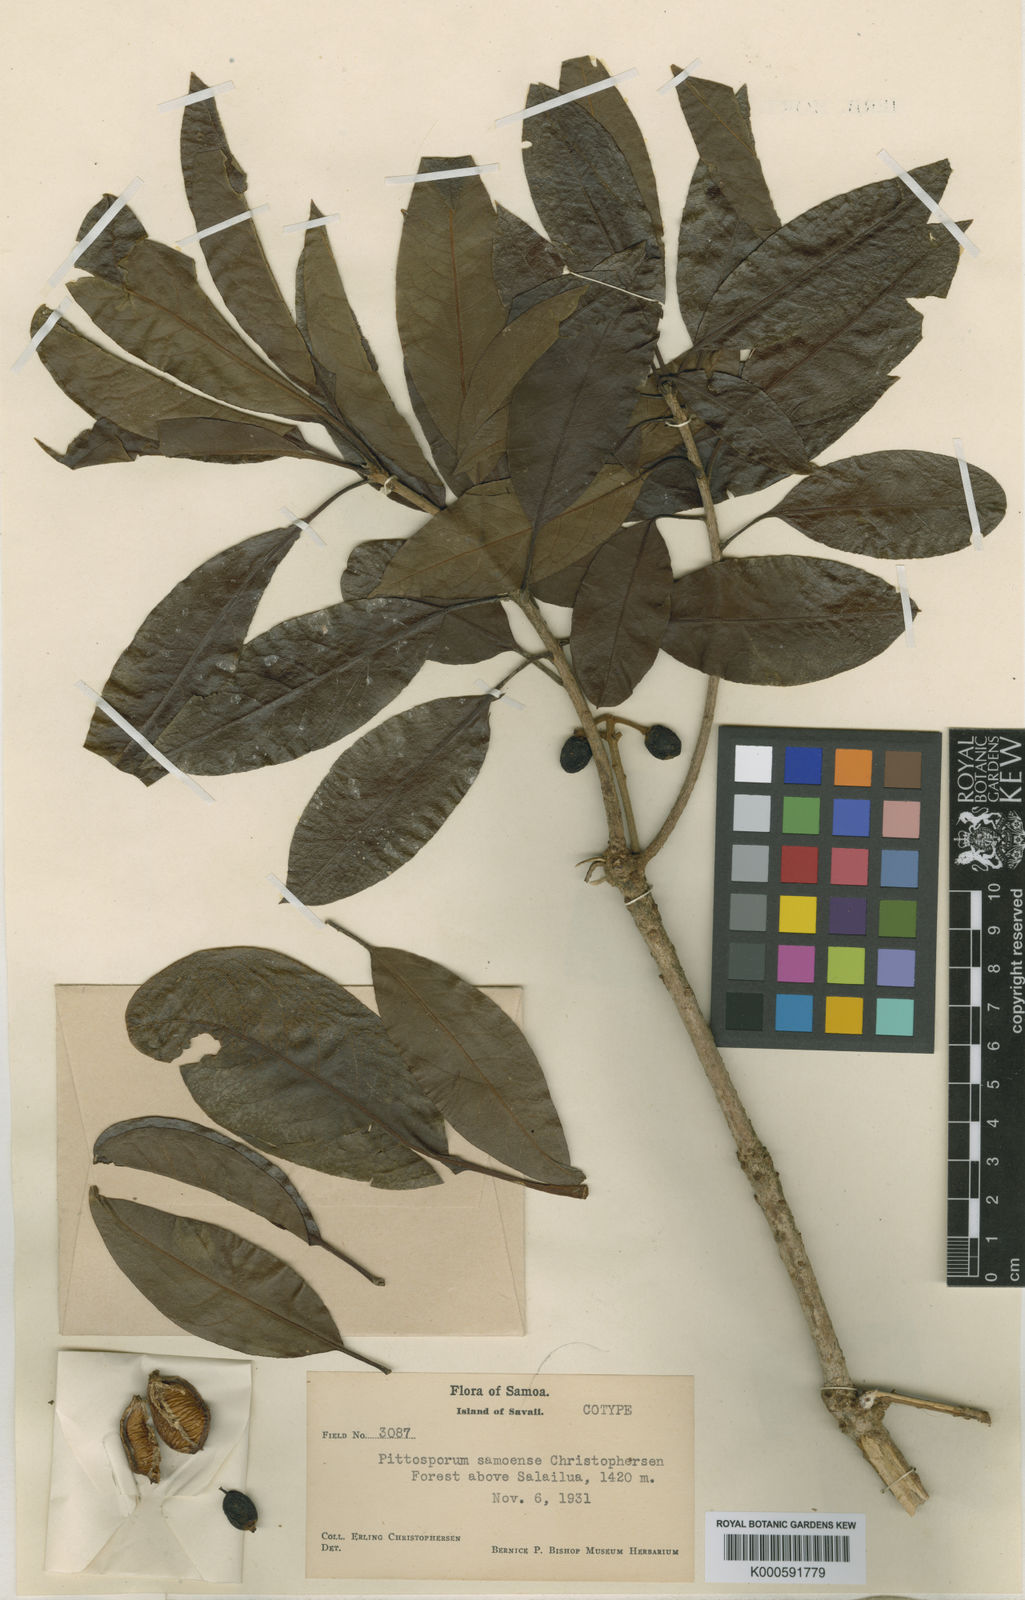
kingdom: Plantae
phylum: Tracheophyta
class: Magnoliopsida
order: Apiales
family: Pittosporaceae
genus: Pittosporum
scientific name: Pittosporum samoense
